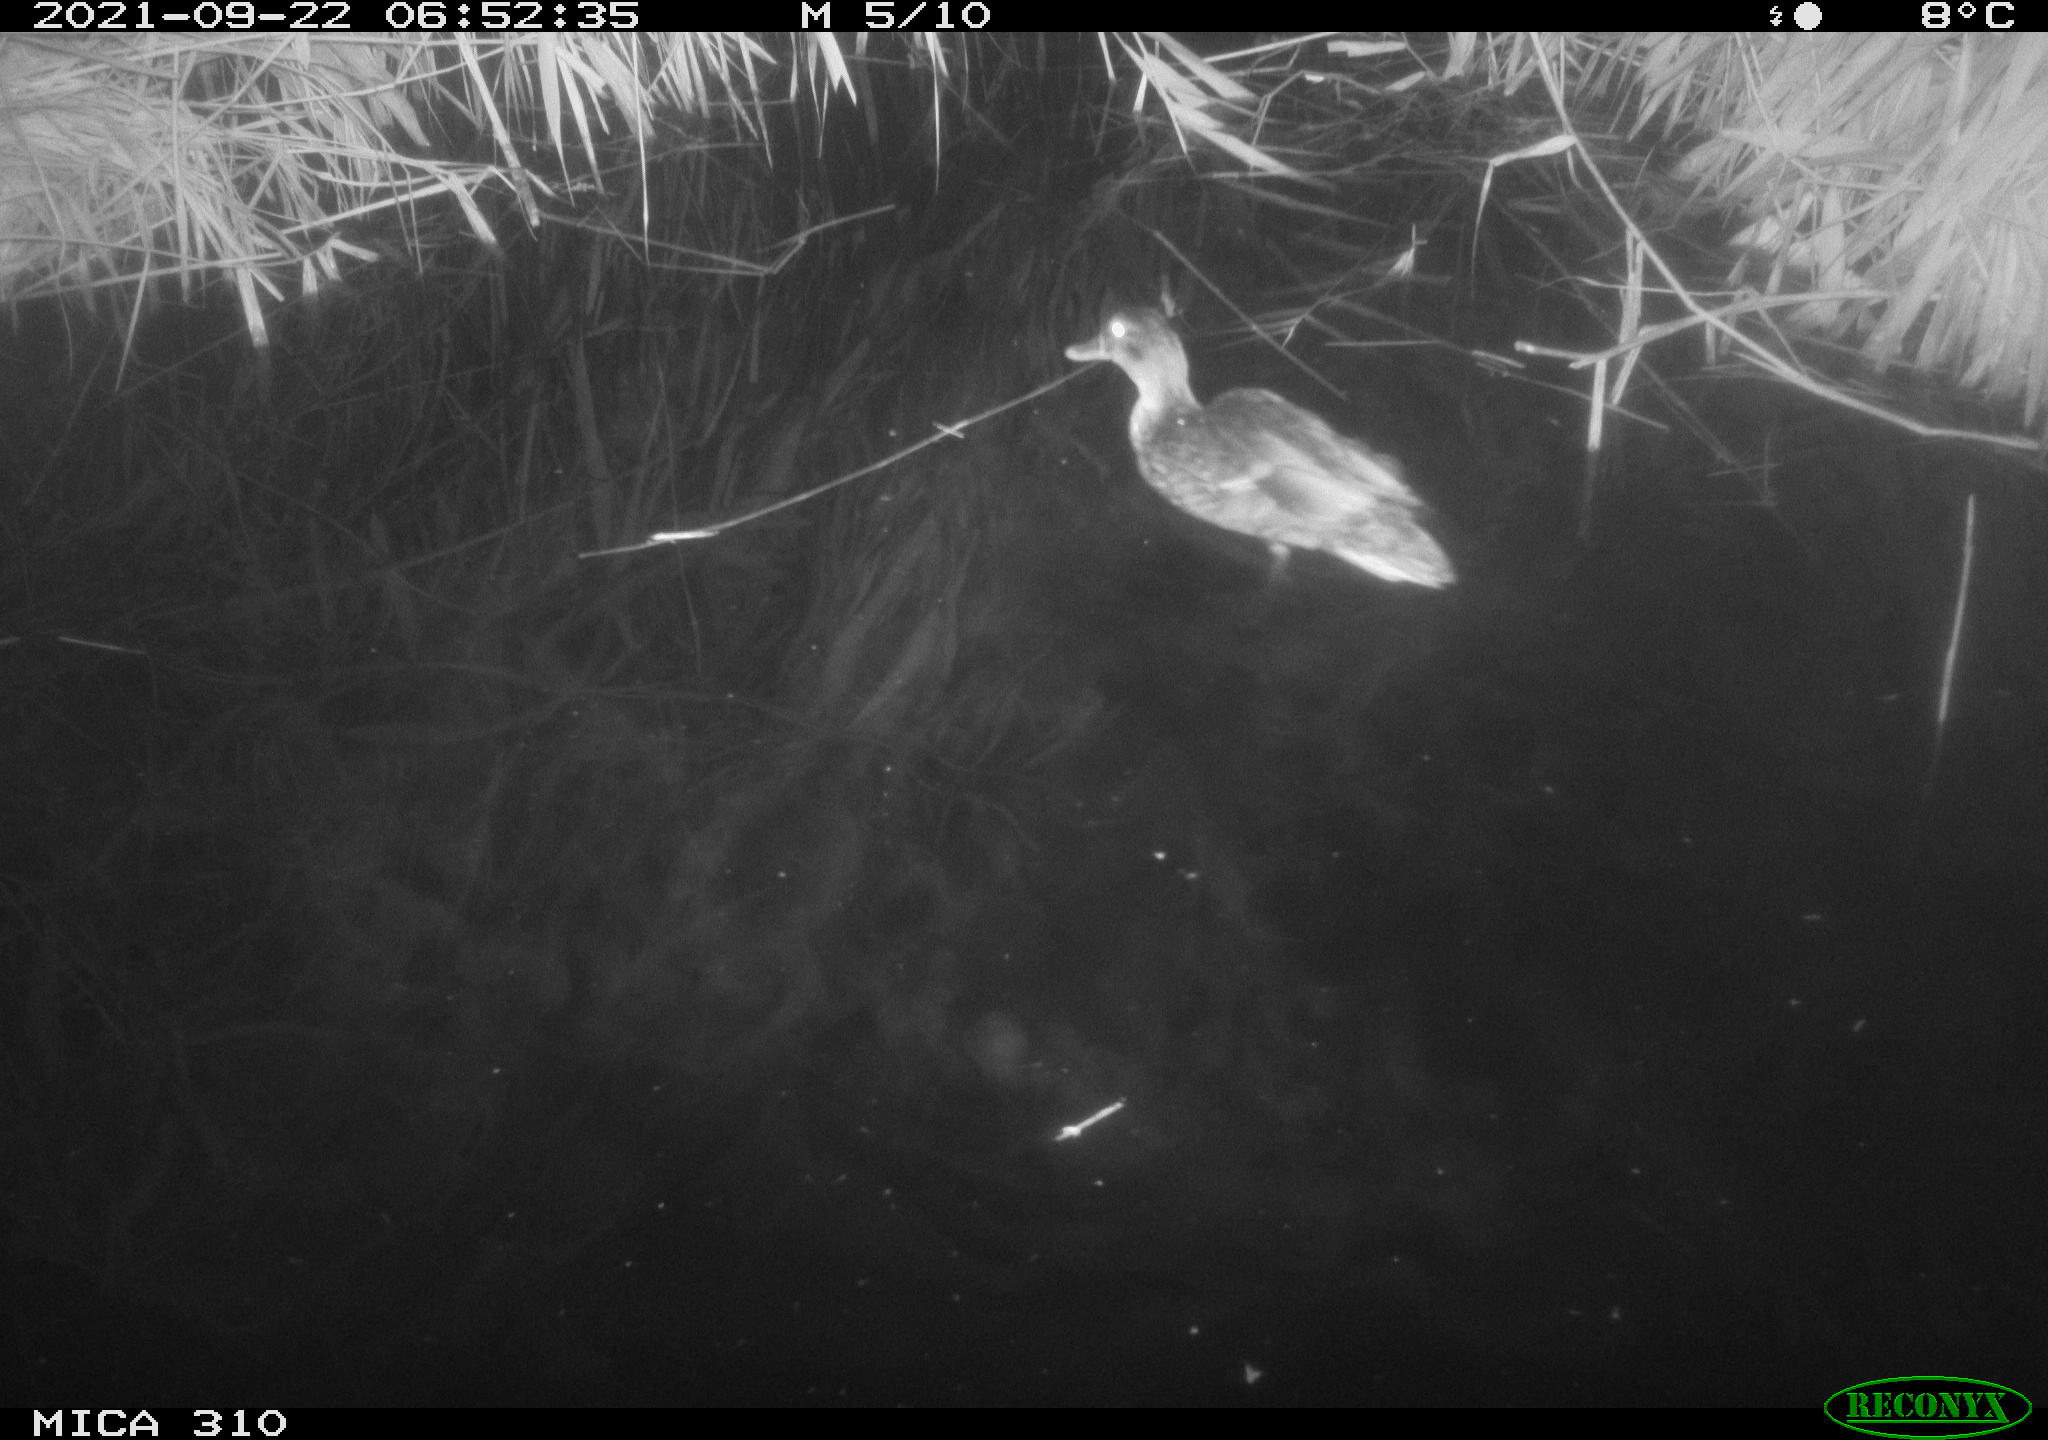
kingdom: Animalia
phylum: Chordata
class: Aves
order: Anseriformes
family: Anatidae
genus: Anas
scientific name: Anas platyrhynchos
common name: Mallard
